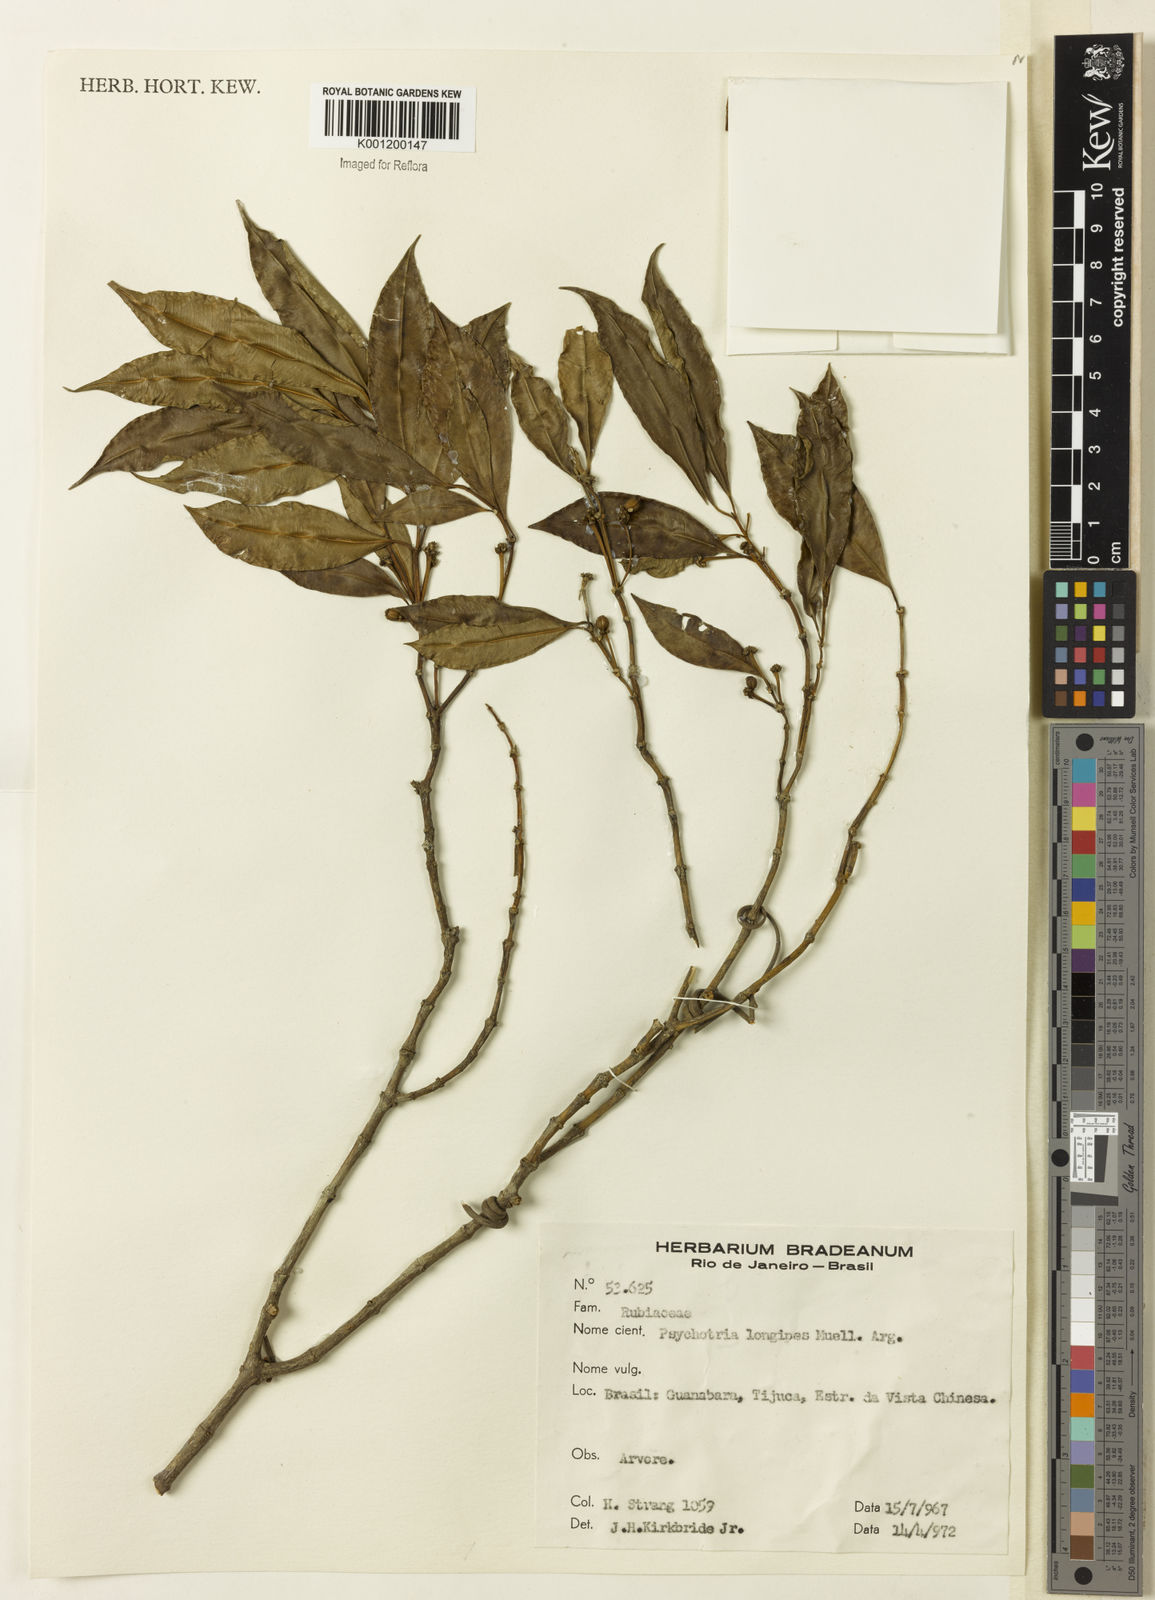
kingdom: Plantae
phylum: Tracheophyta
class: Magnoliopsida
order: Gentianales
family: Rubiaceae
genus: Rudgea
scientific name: Rudgea sessilis
